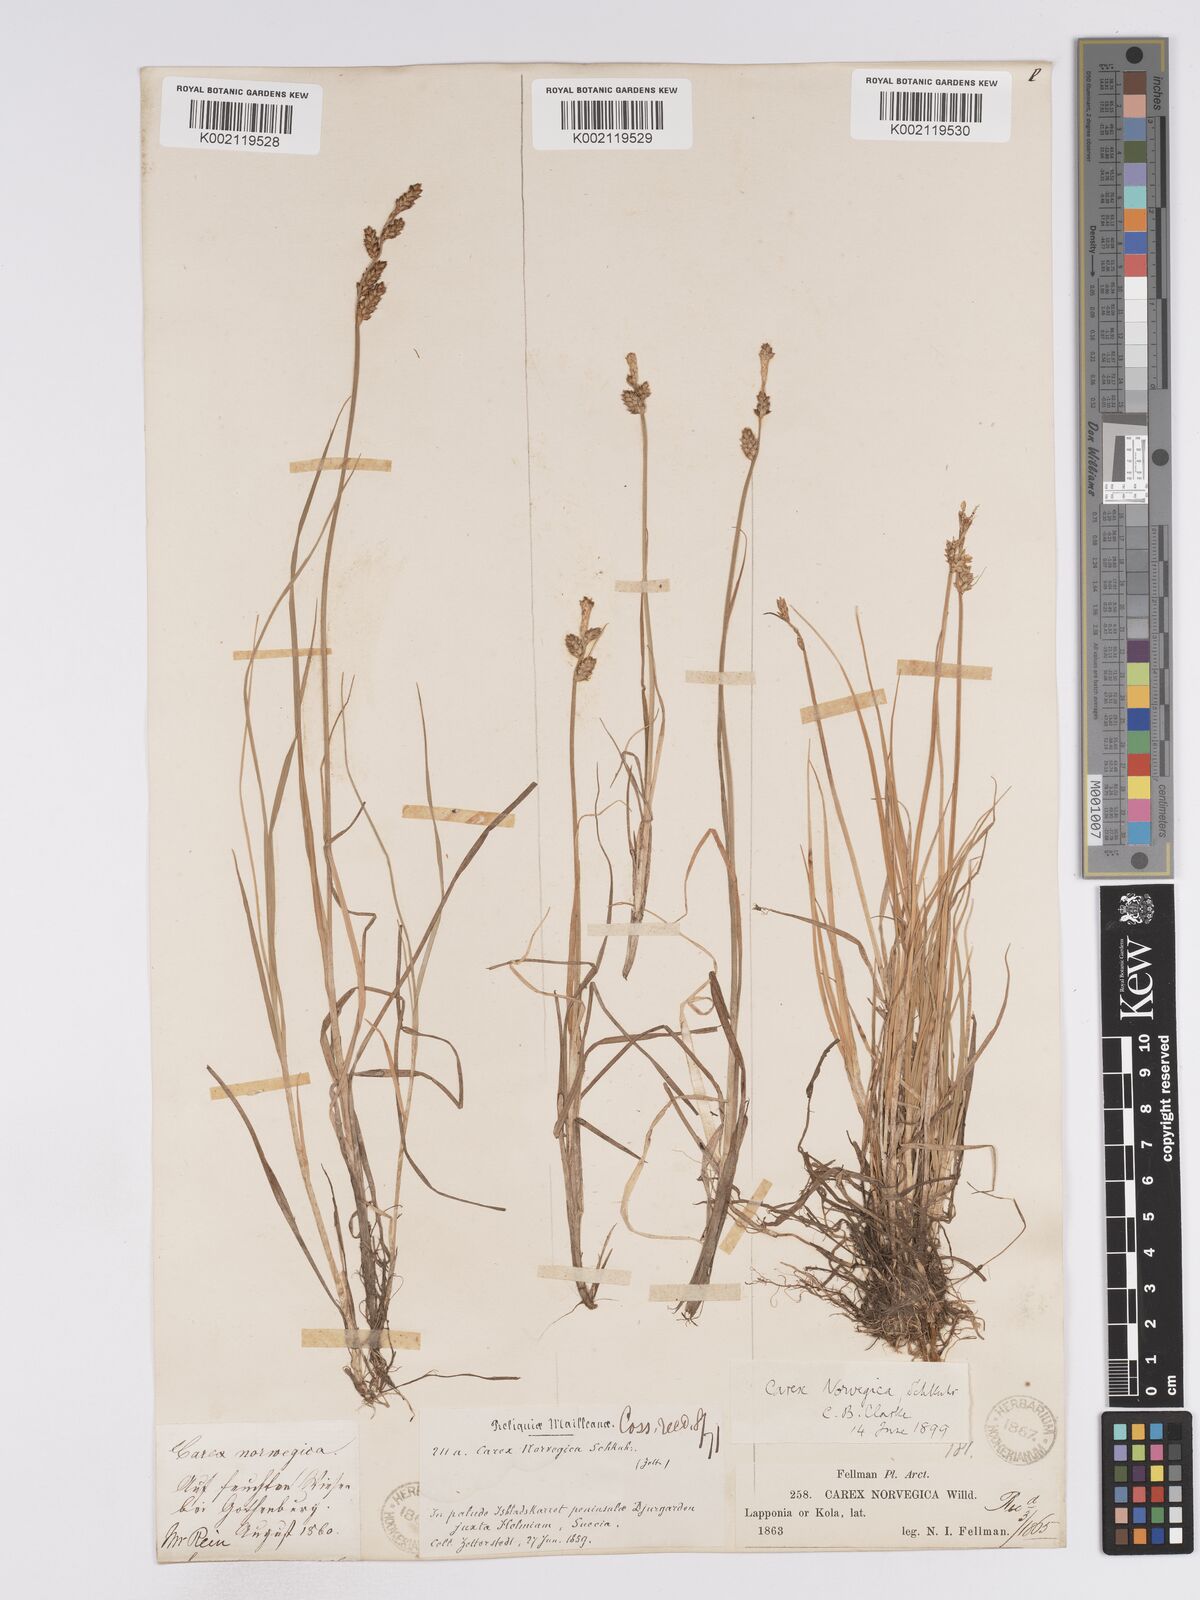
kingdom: Plantae
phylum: Tracheophyta
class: Liliopsida
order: Poales
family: Cyperaceae
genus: Carex
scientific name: Carex mackenziei
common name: Mackenzie's sedge
